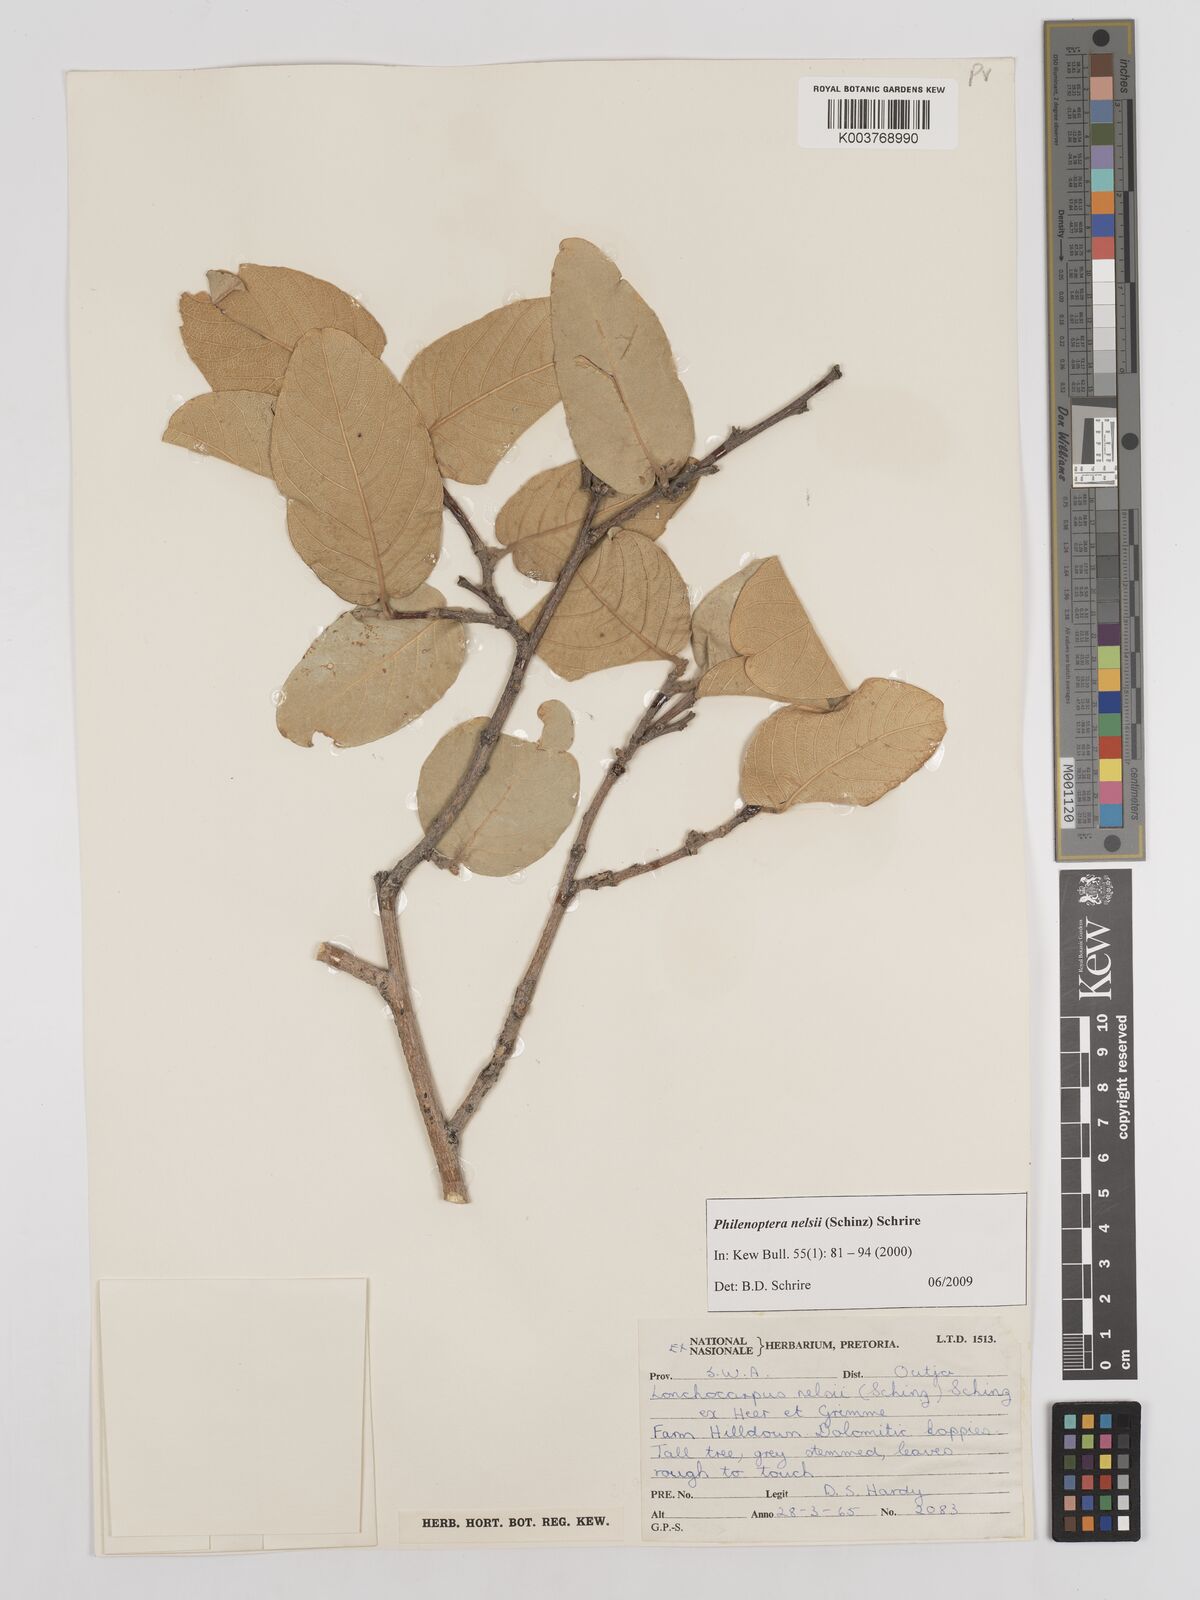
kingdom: Plantae
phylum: Tracheophyta
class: Magnoliopsida
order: Fabales
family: Fabaceae
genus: Philenoptera
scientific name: Philenoptera nelsii
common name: Kalahari apple-leaf
